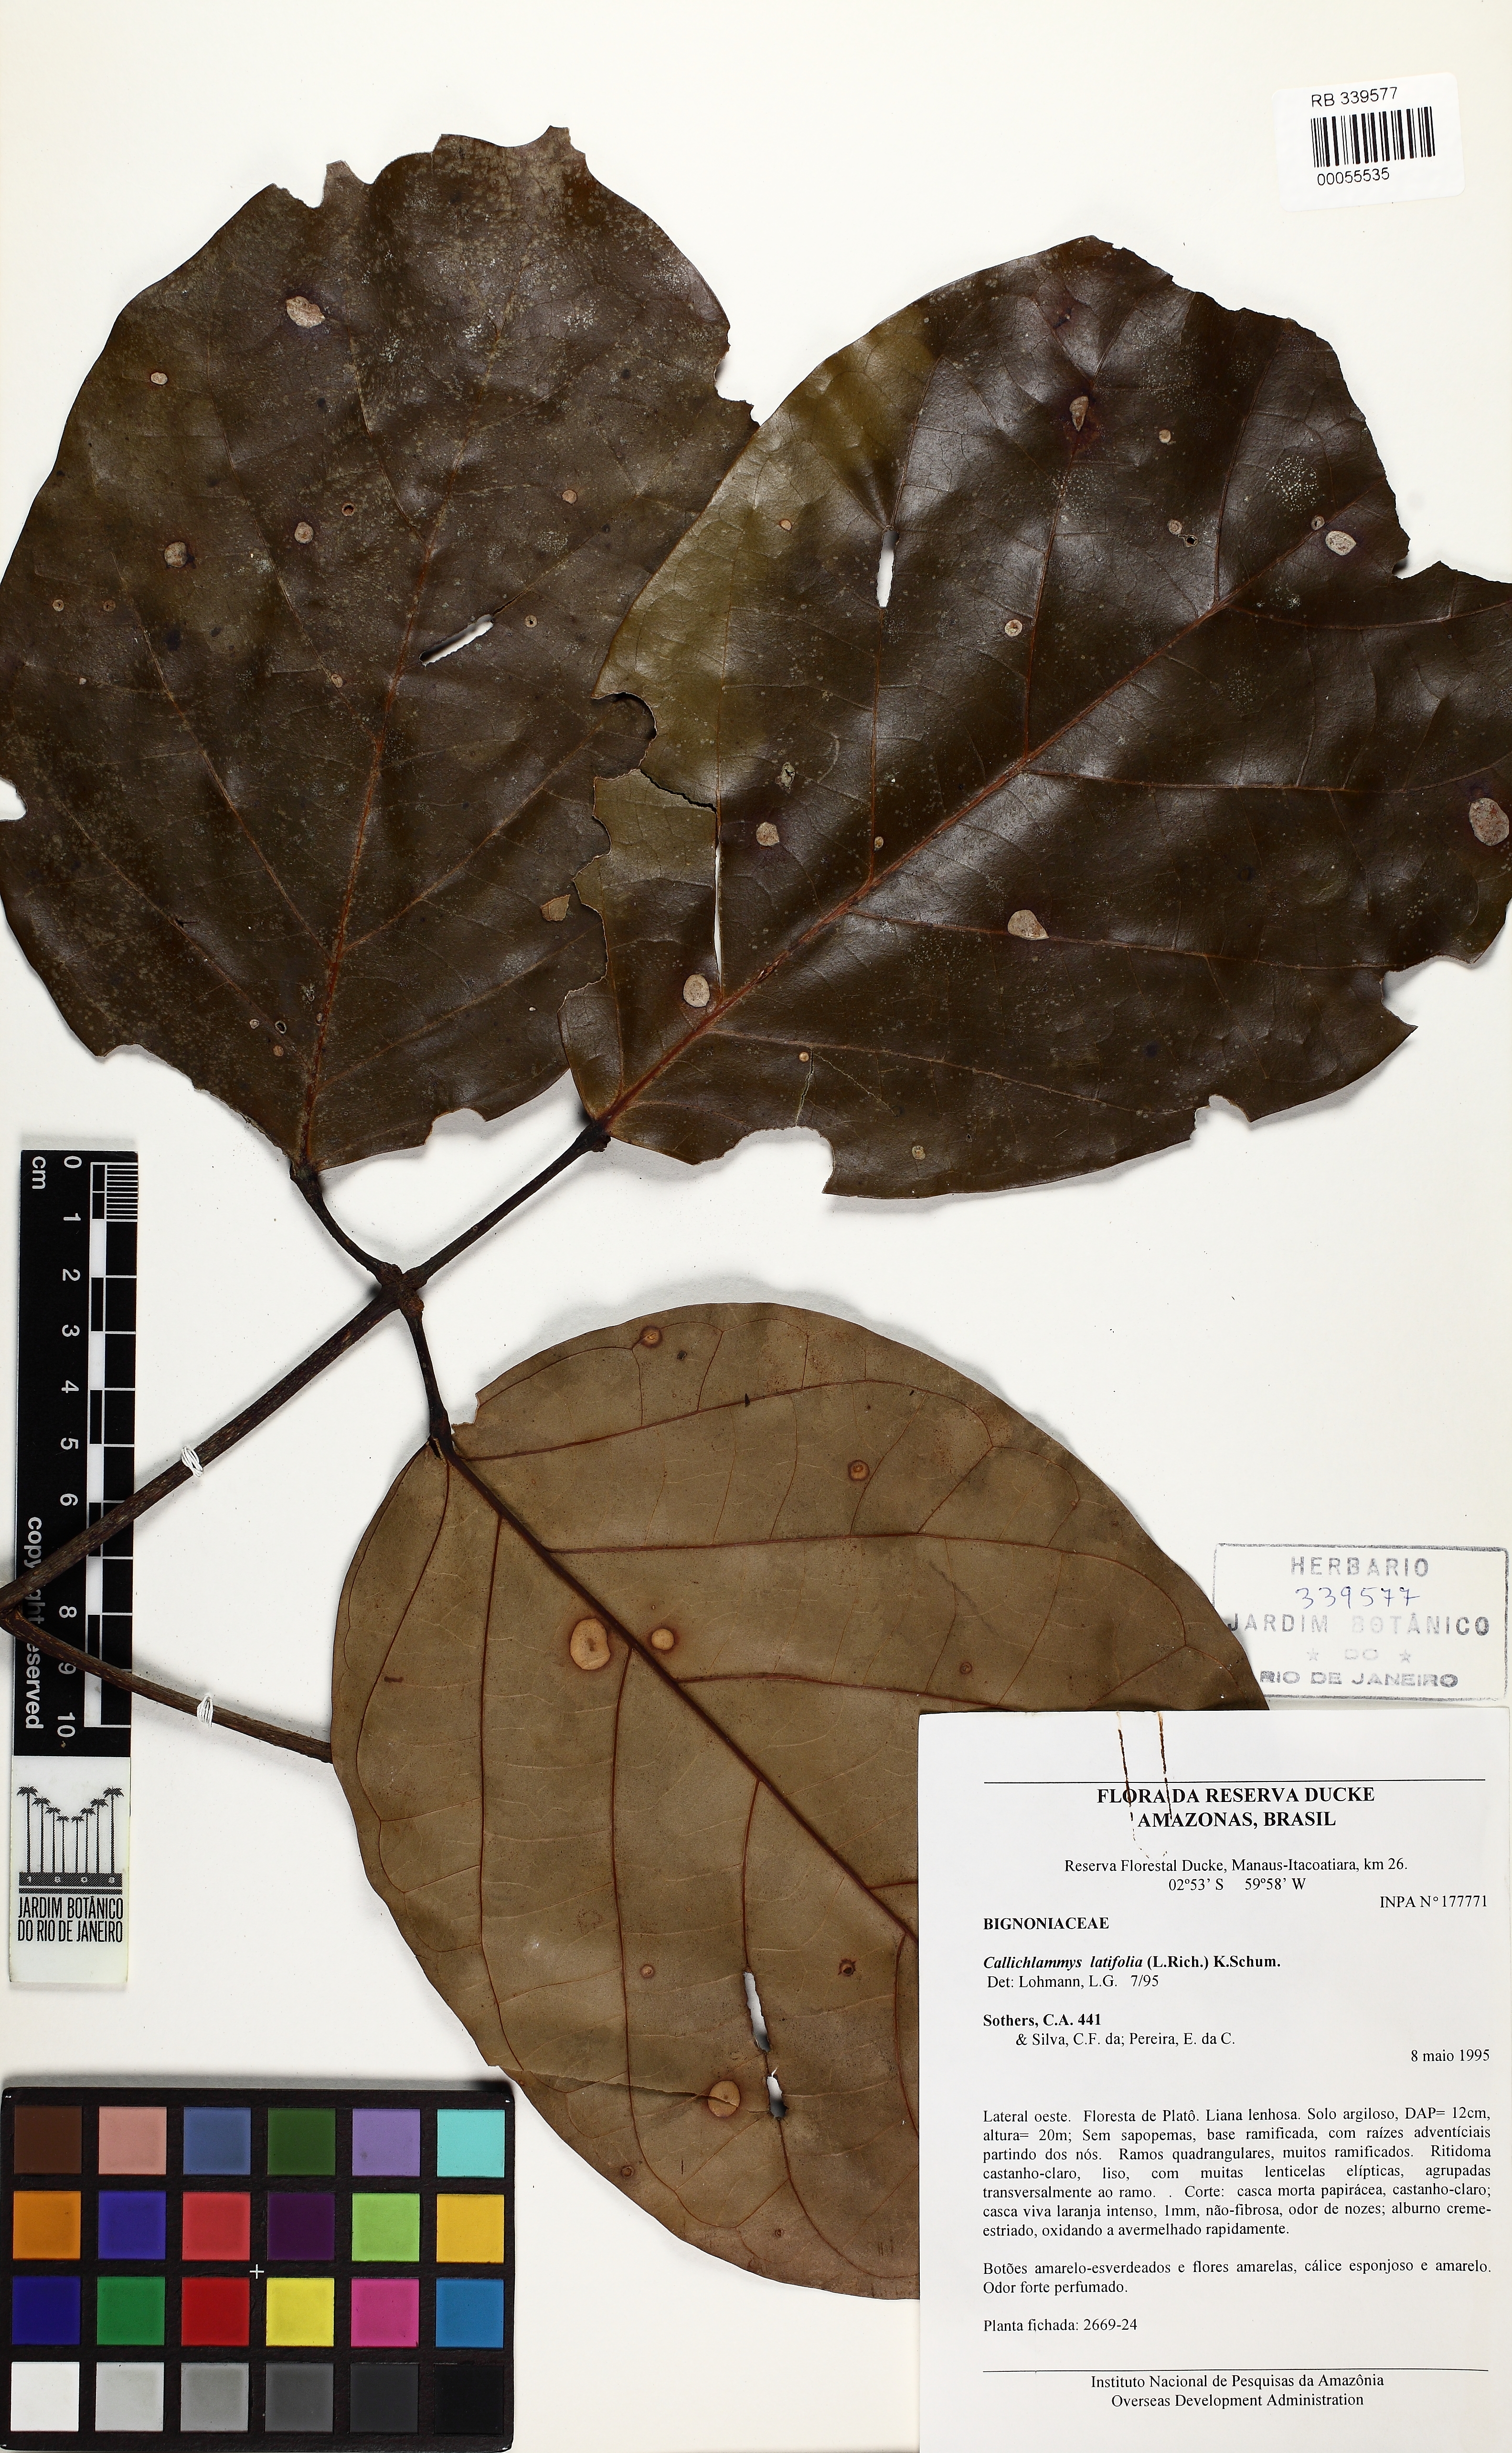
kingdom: Plantae
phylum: Tracheophyta
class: Magnoliopsida
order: Lamiales
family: Bignoniaceae
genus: Callichlamys
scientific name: Callichlamys latifolia
